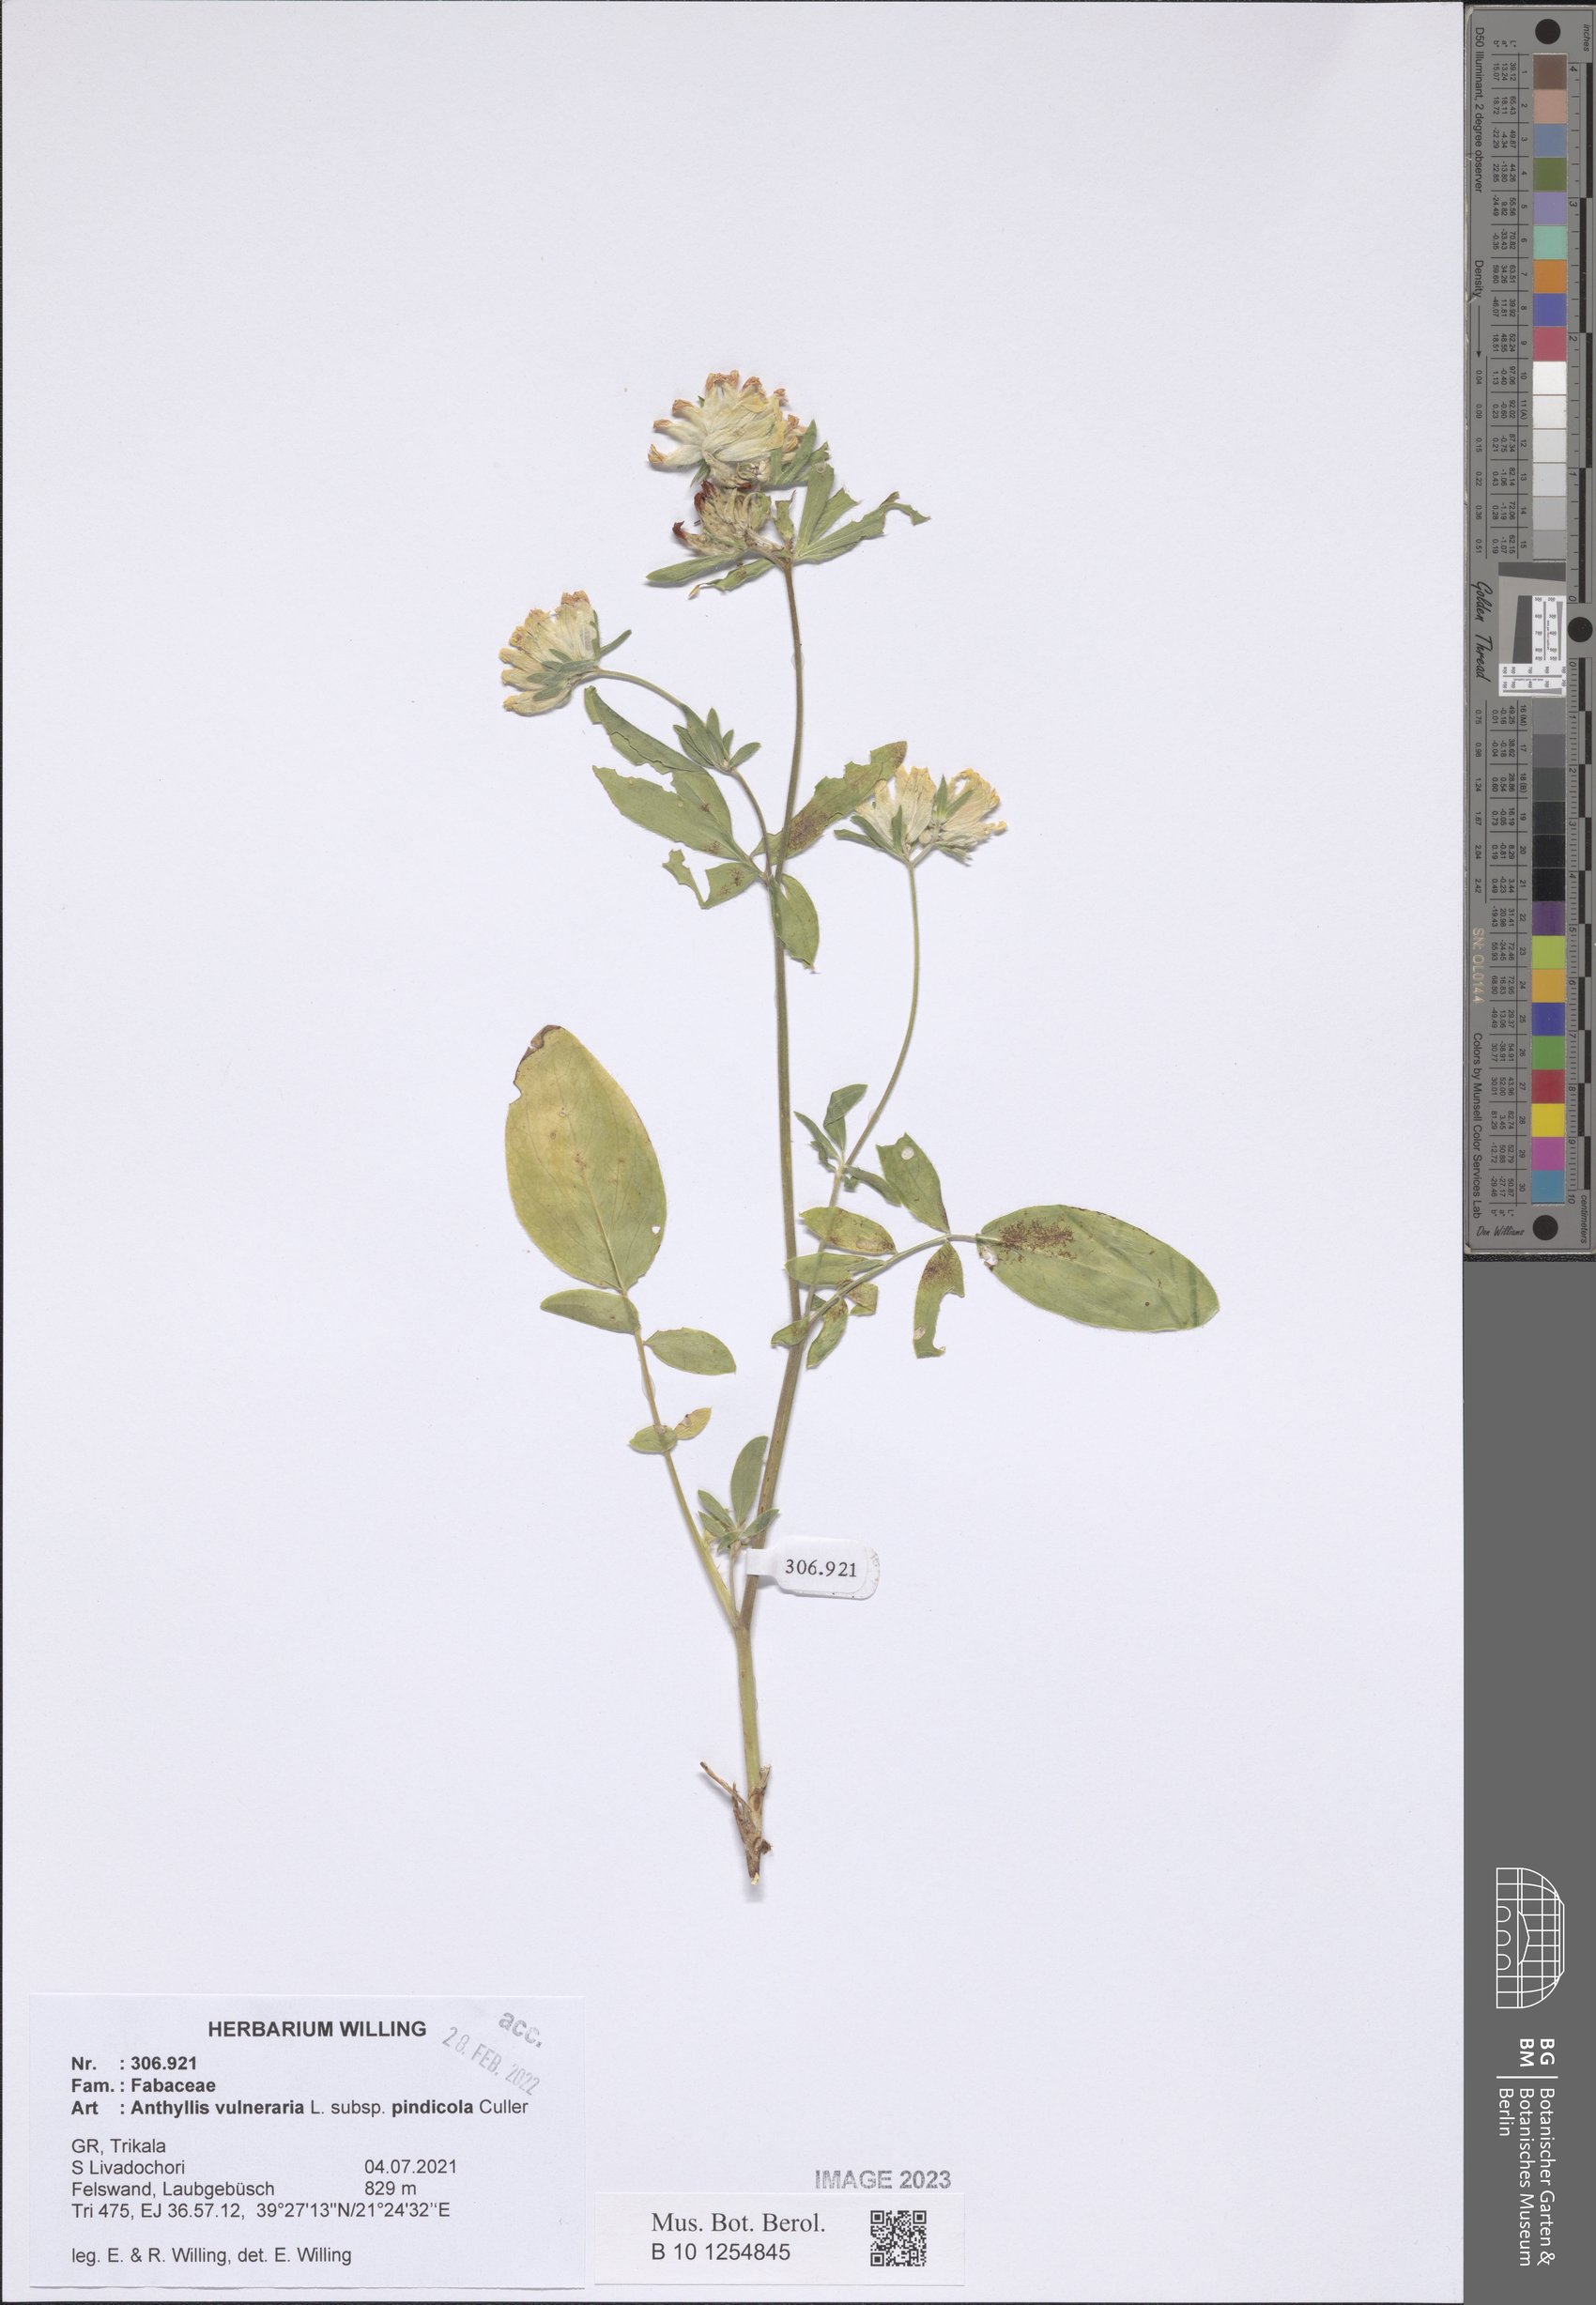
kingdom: Plantae
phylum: Tracheophyta
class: Magnoliopsida
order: Fabales
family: Fabaceae
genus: Anthyllis
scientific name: Anthyllis vulneraria
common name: Kidney vetch
